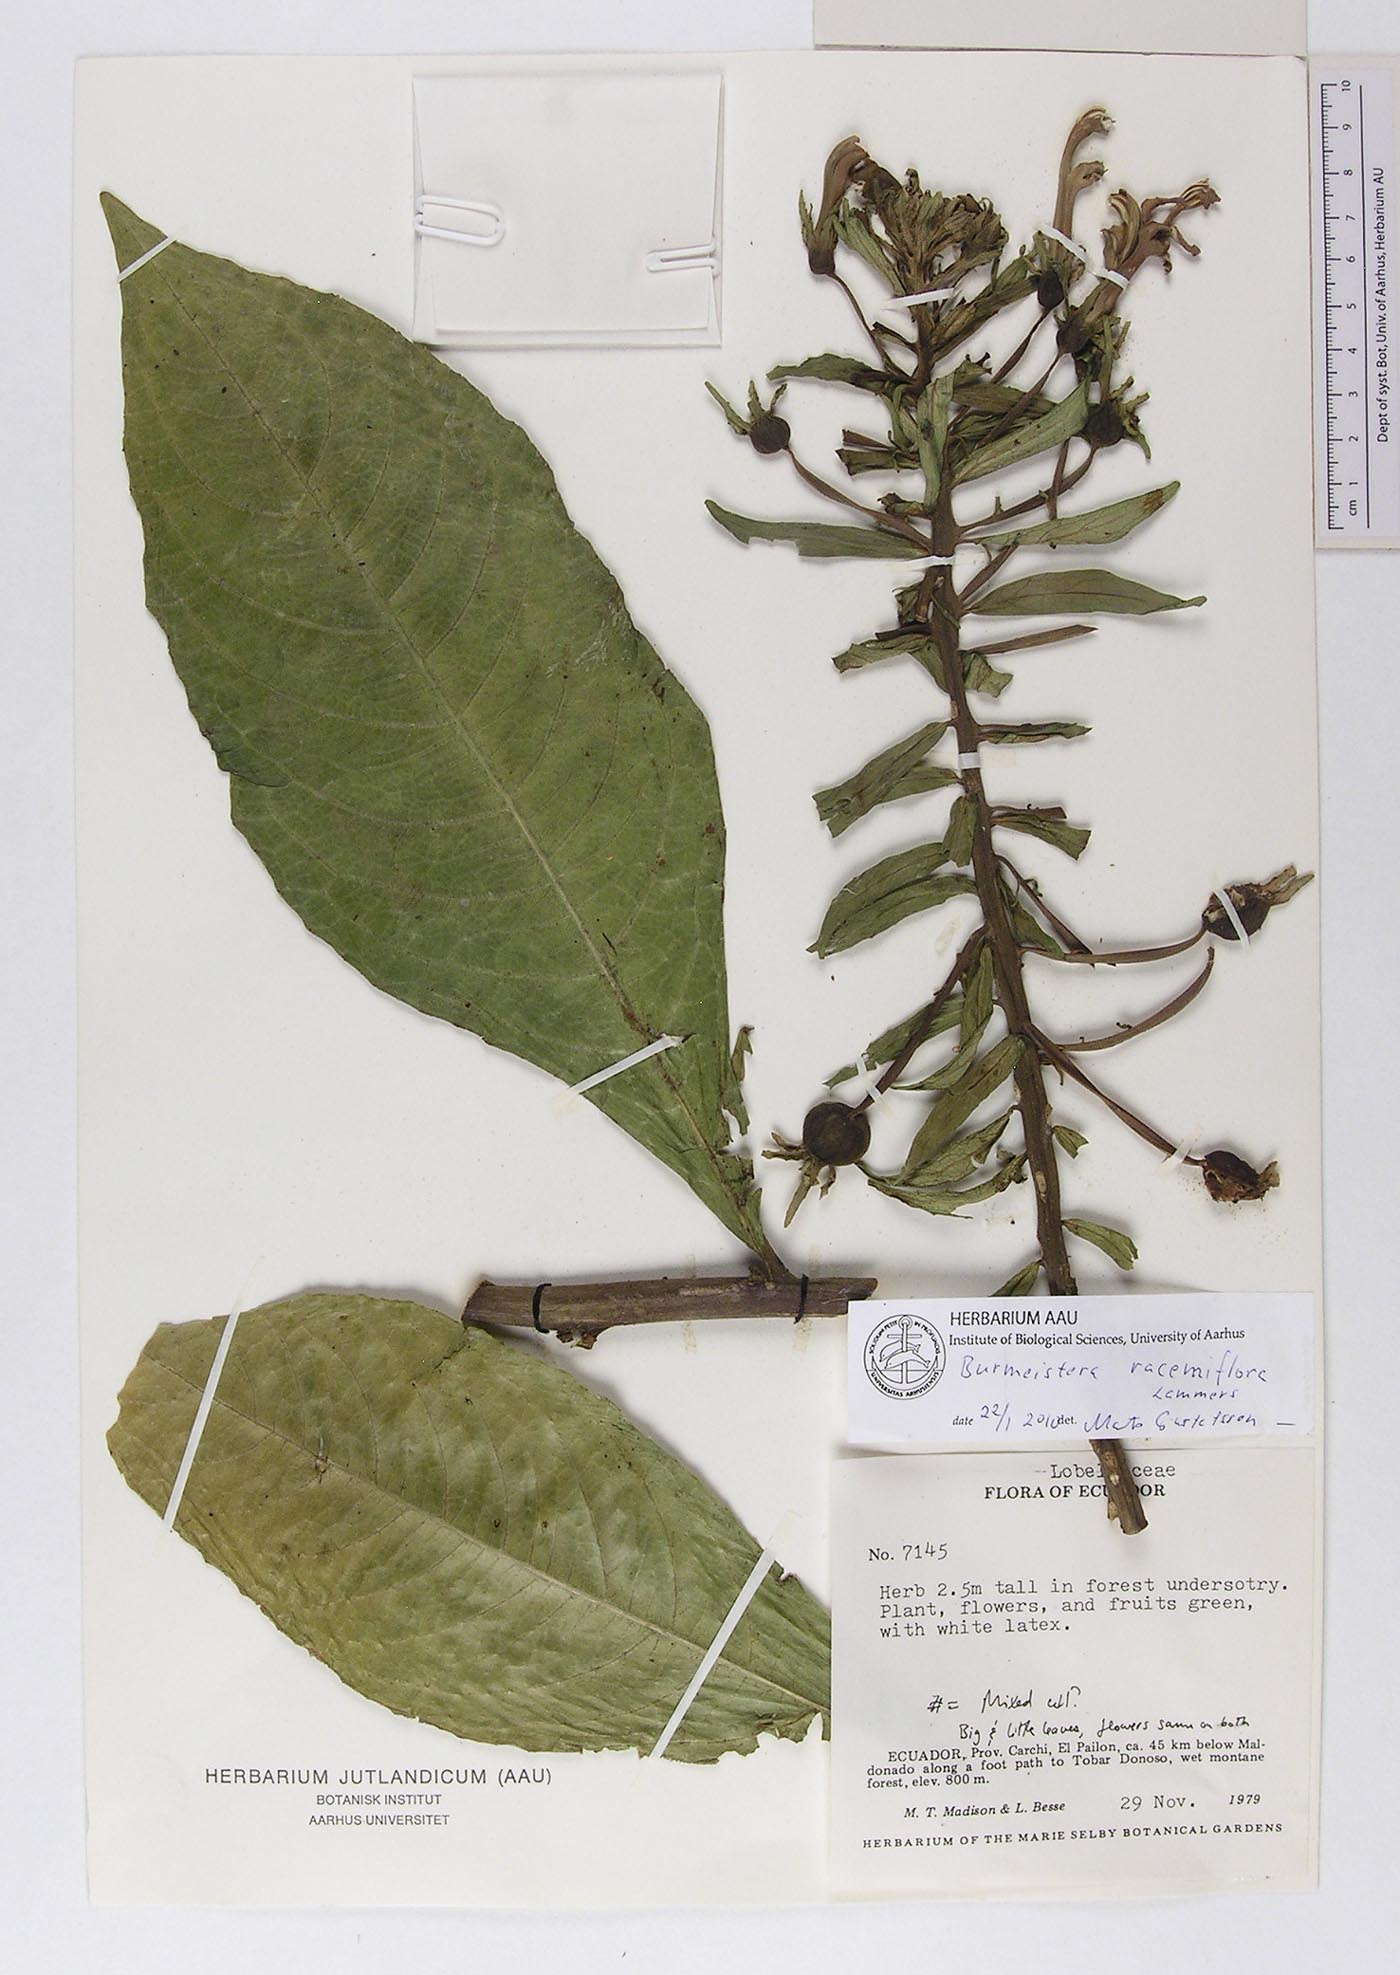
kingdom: Plantae
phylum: Tracheophyta
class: Magnoliopsida
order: Asterales
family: Campanulaceae
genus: Burmeistera
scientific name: Burmeistera racemiflora
